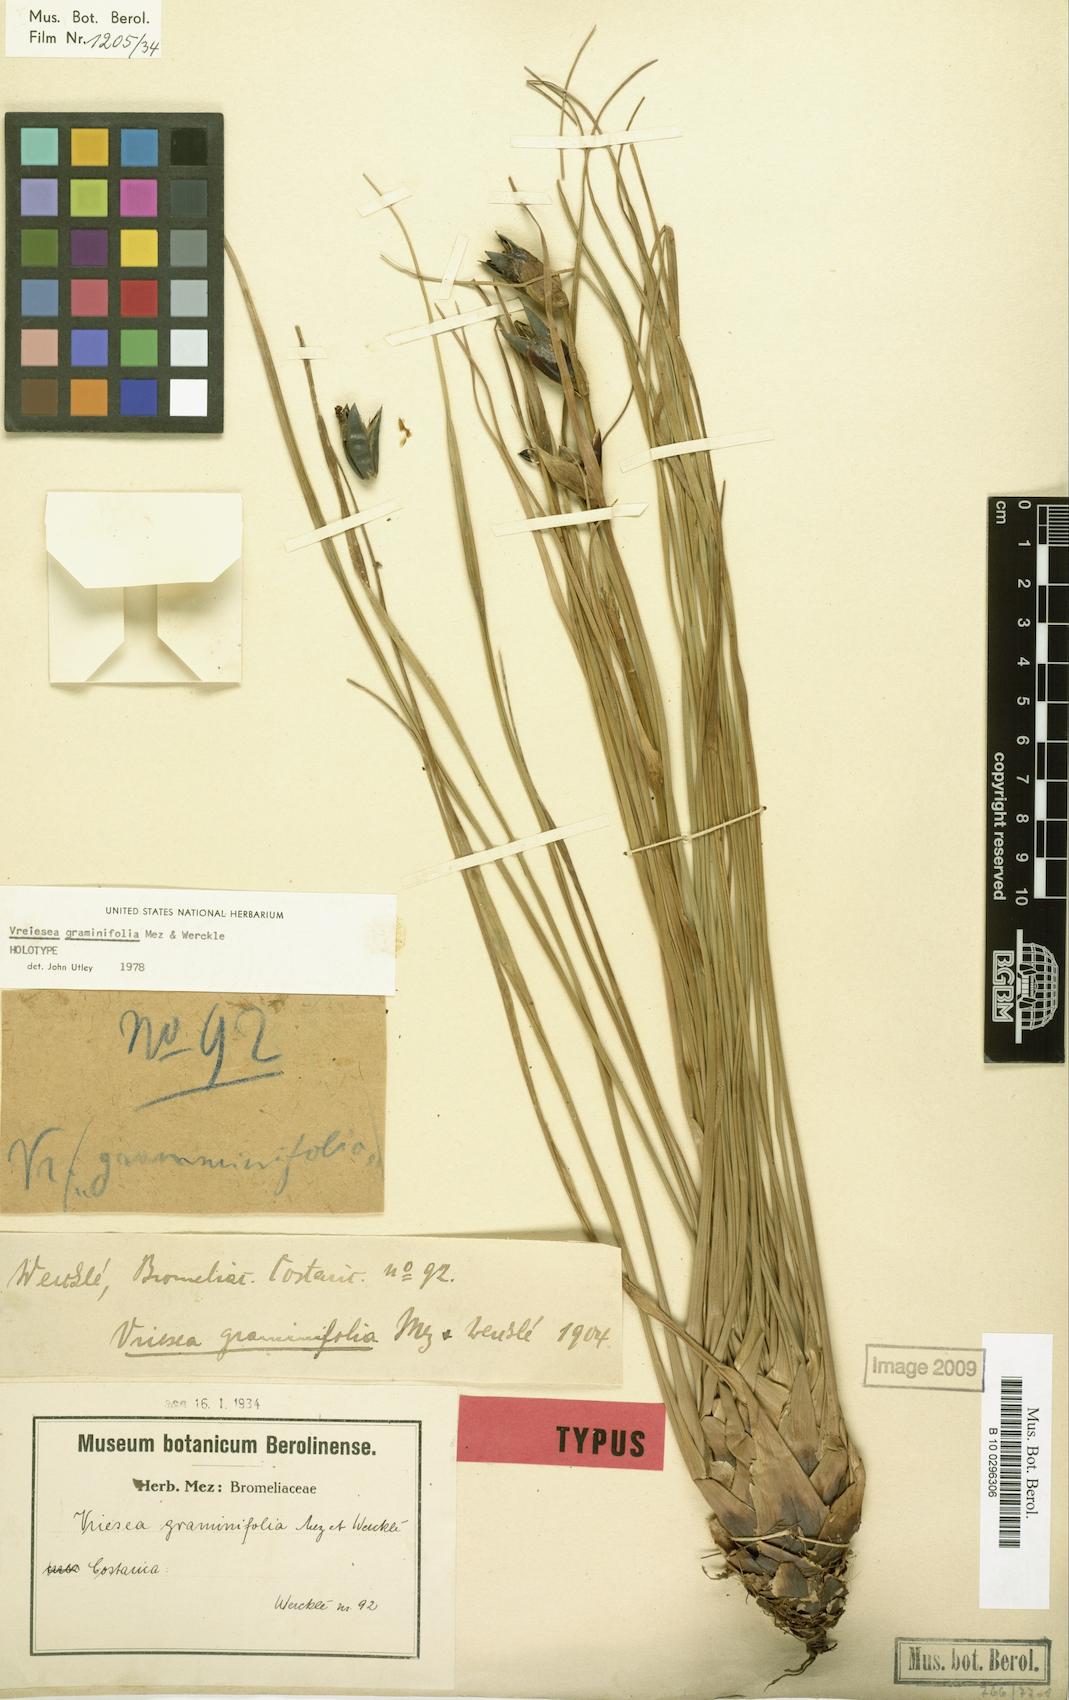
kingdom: Plantae
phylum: Tracheophyta
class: Liliopsida
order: Poales
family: Bromeliaceae
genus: Werauhia
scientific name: Werauhia graminifolia
